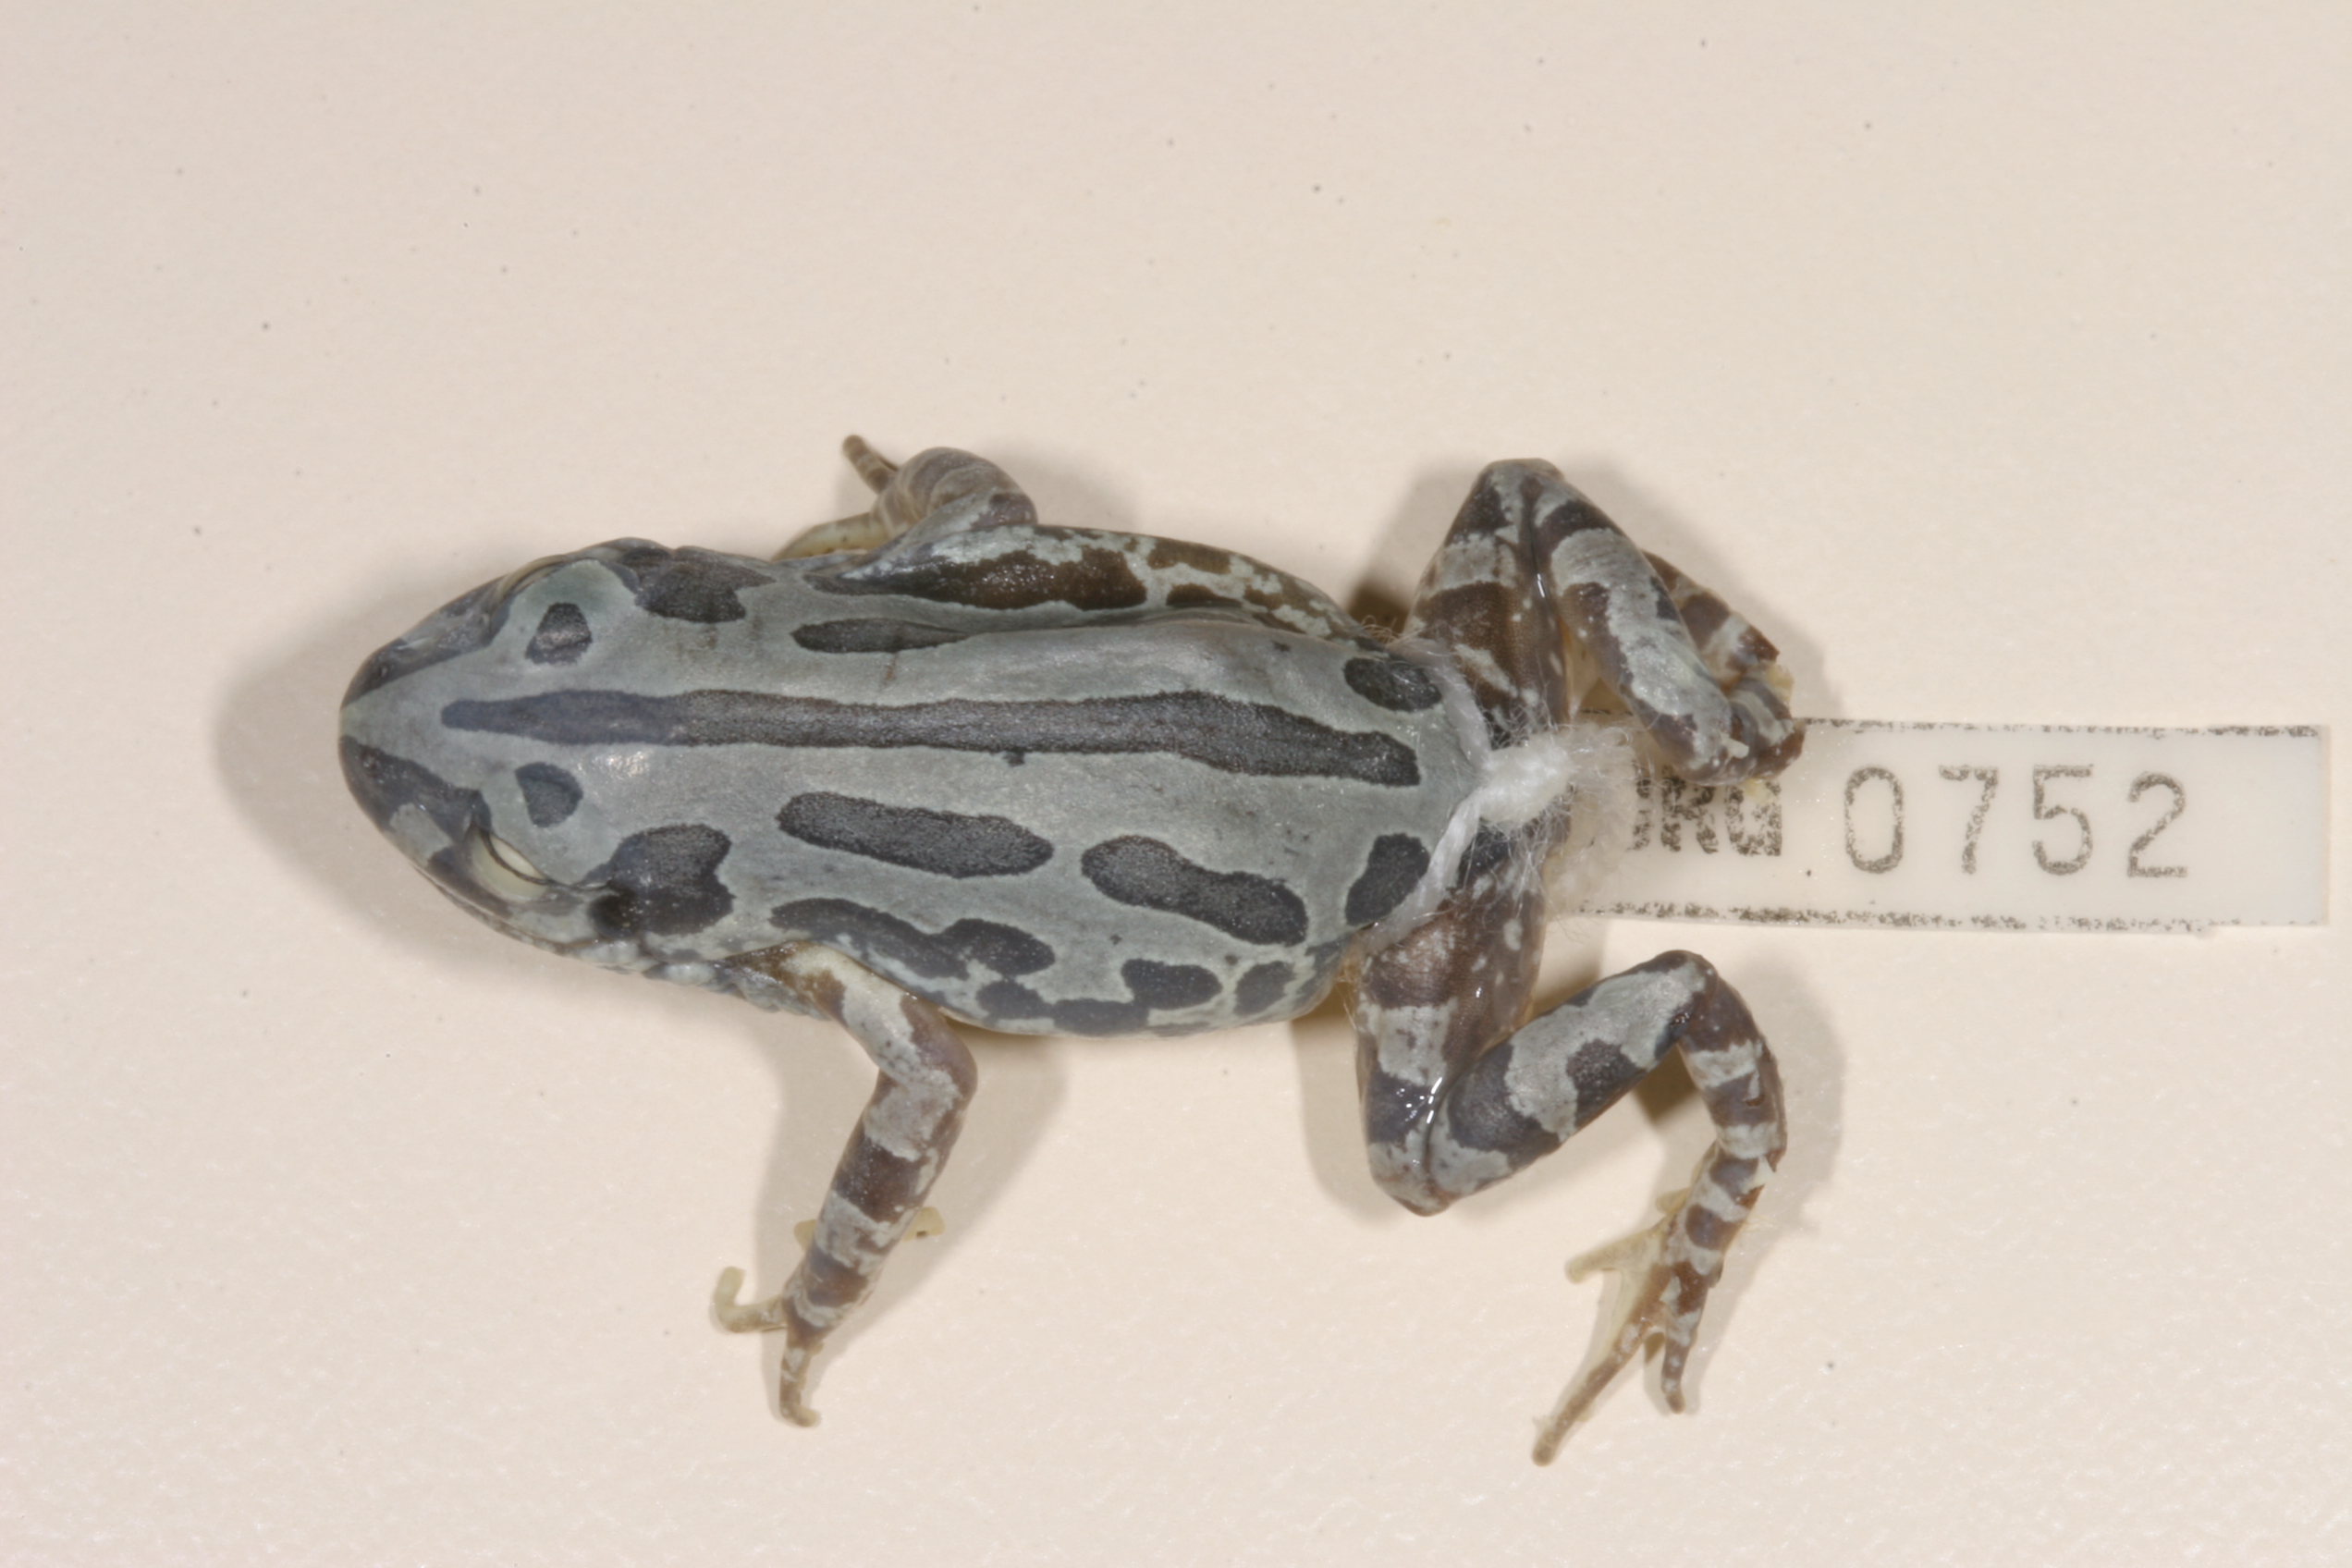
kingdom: Animalia
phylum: Chordata
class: Amphibia
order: Anura
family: Hyperoliidae
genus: Kassina
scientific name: Kassina senegalensis
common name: Senegal land frog
